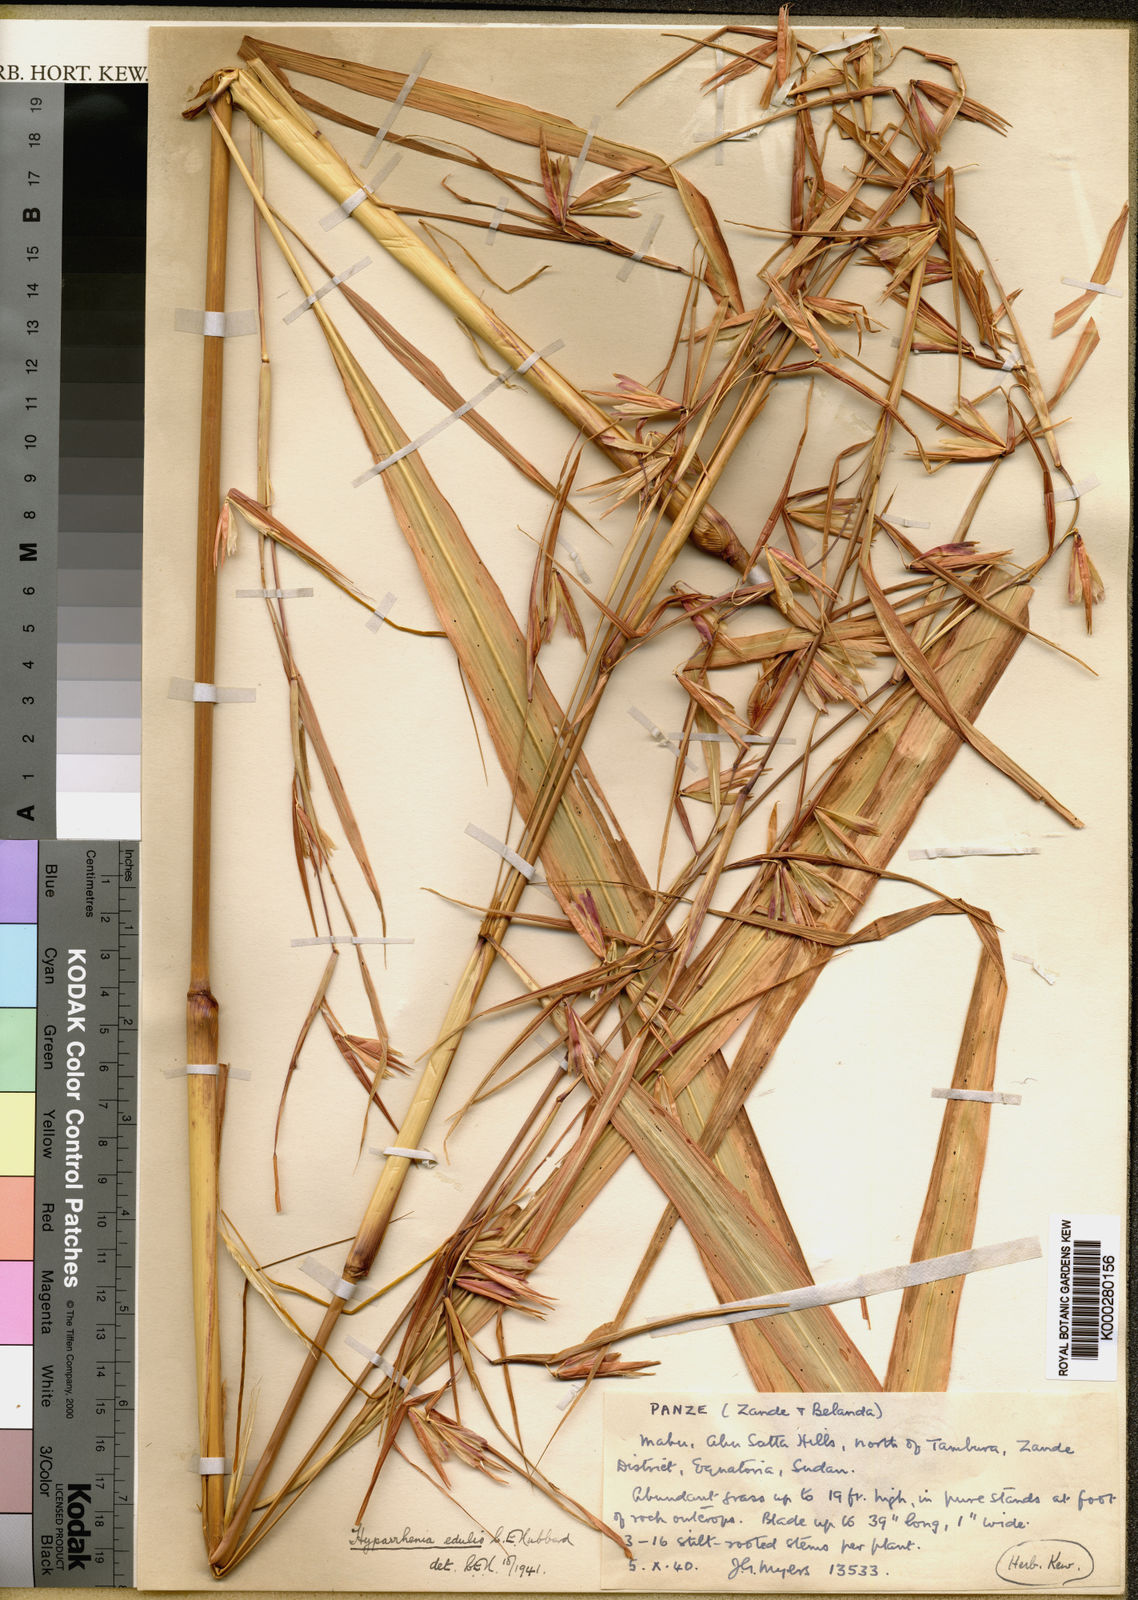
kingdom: Plantae
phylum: Tracheophyta
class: Liliopsida
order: Poales
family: Poaceae
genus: Hyperthelia
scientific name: Hyperthelia edulis
